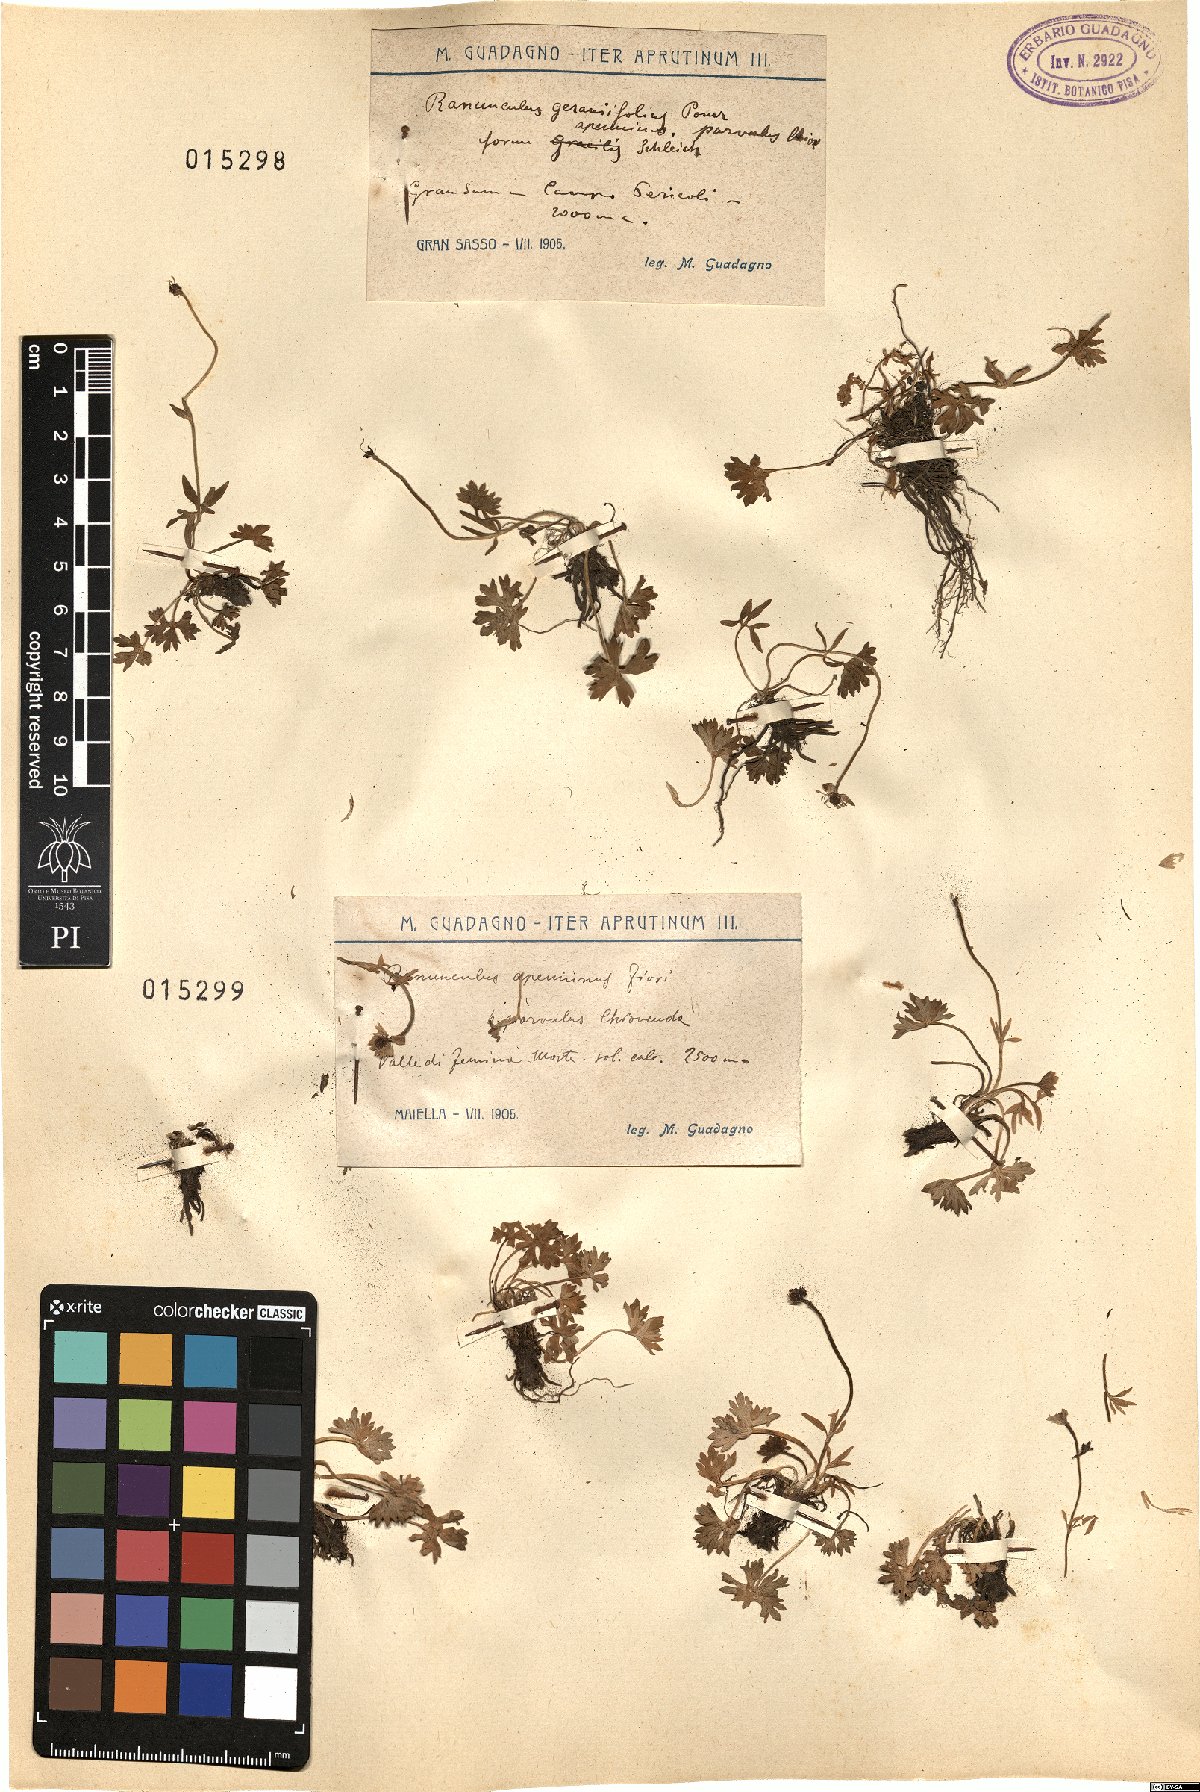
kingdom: Plantae
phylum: Tracheophyta
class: Magnoliopsida
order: Ranunculales
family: Ranunculaceae
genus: Ranunculus
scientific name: Ranunculus apenninus
